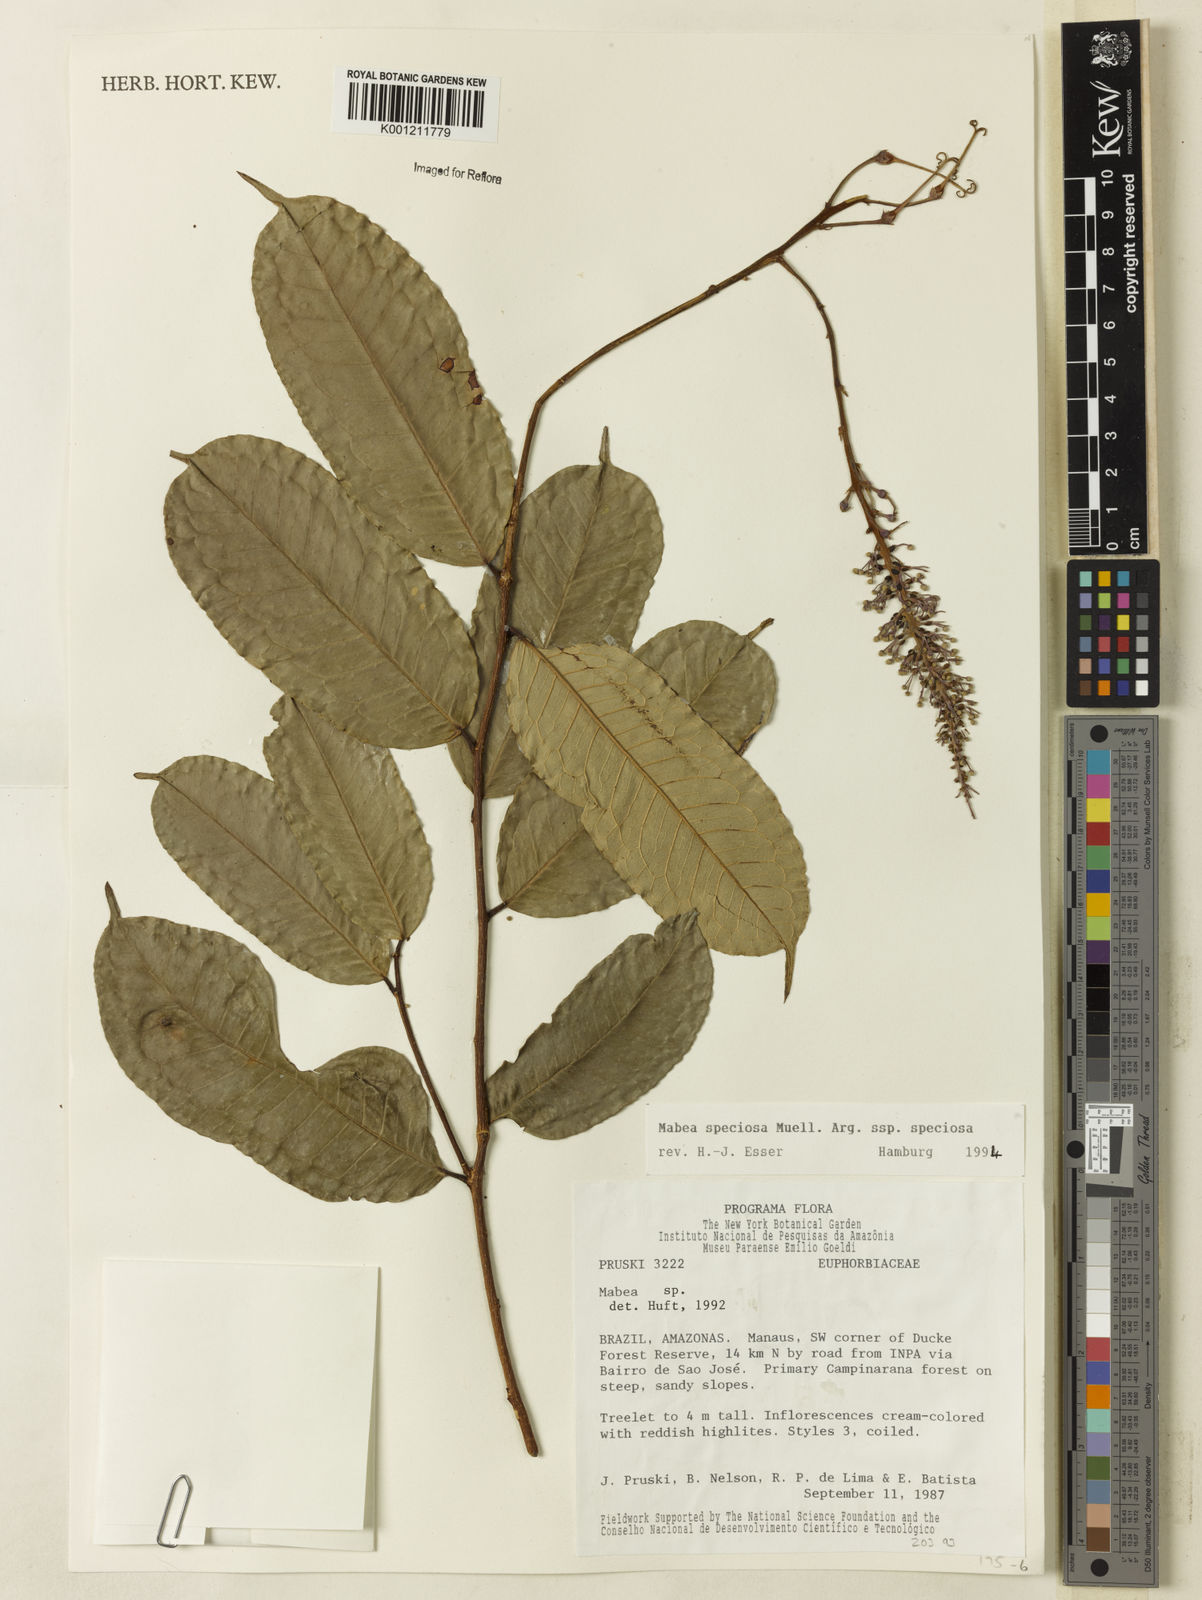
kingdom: Plantae
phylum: Tracheophyta
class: Magnoliopsida
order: Malpighiales
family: Euphorbiaceae
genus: Mabea
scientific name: Mabea
